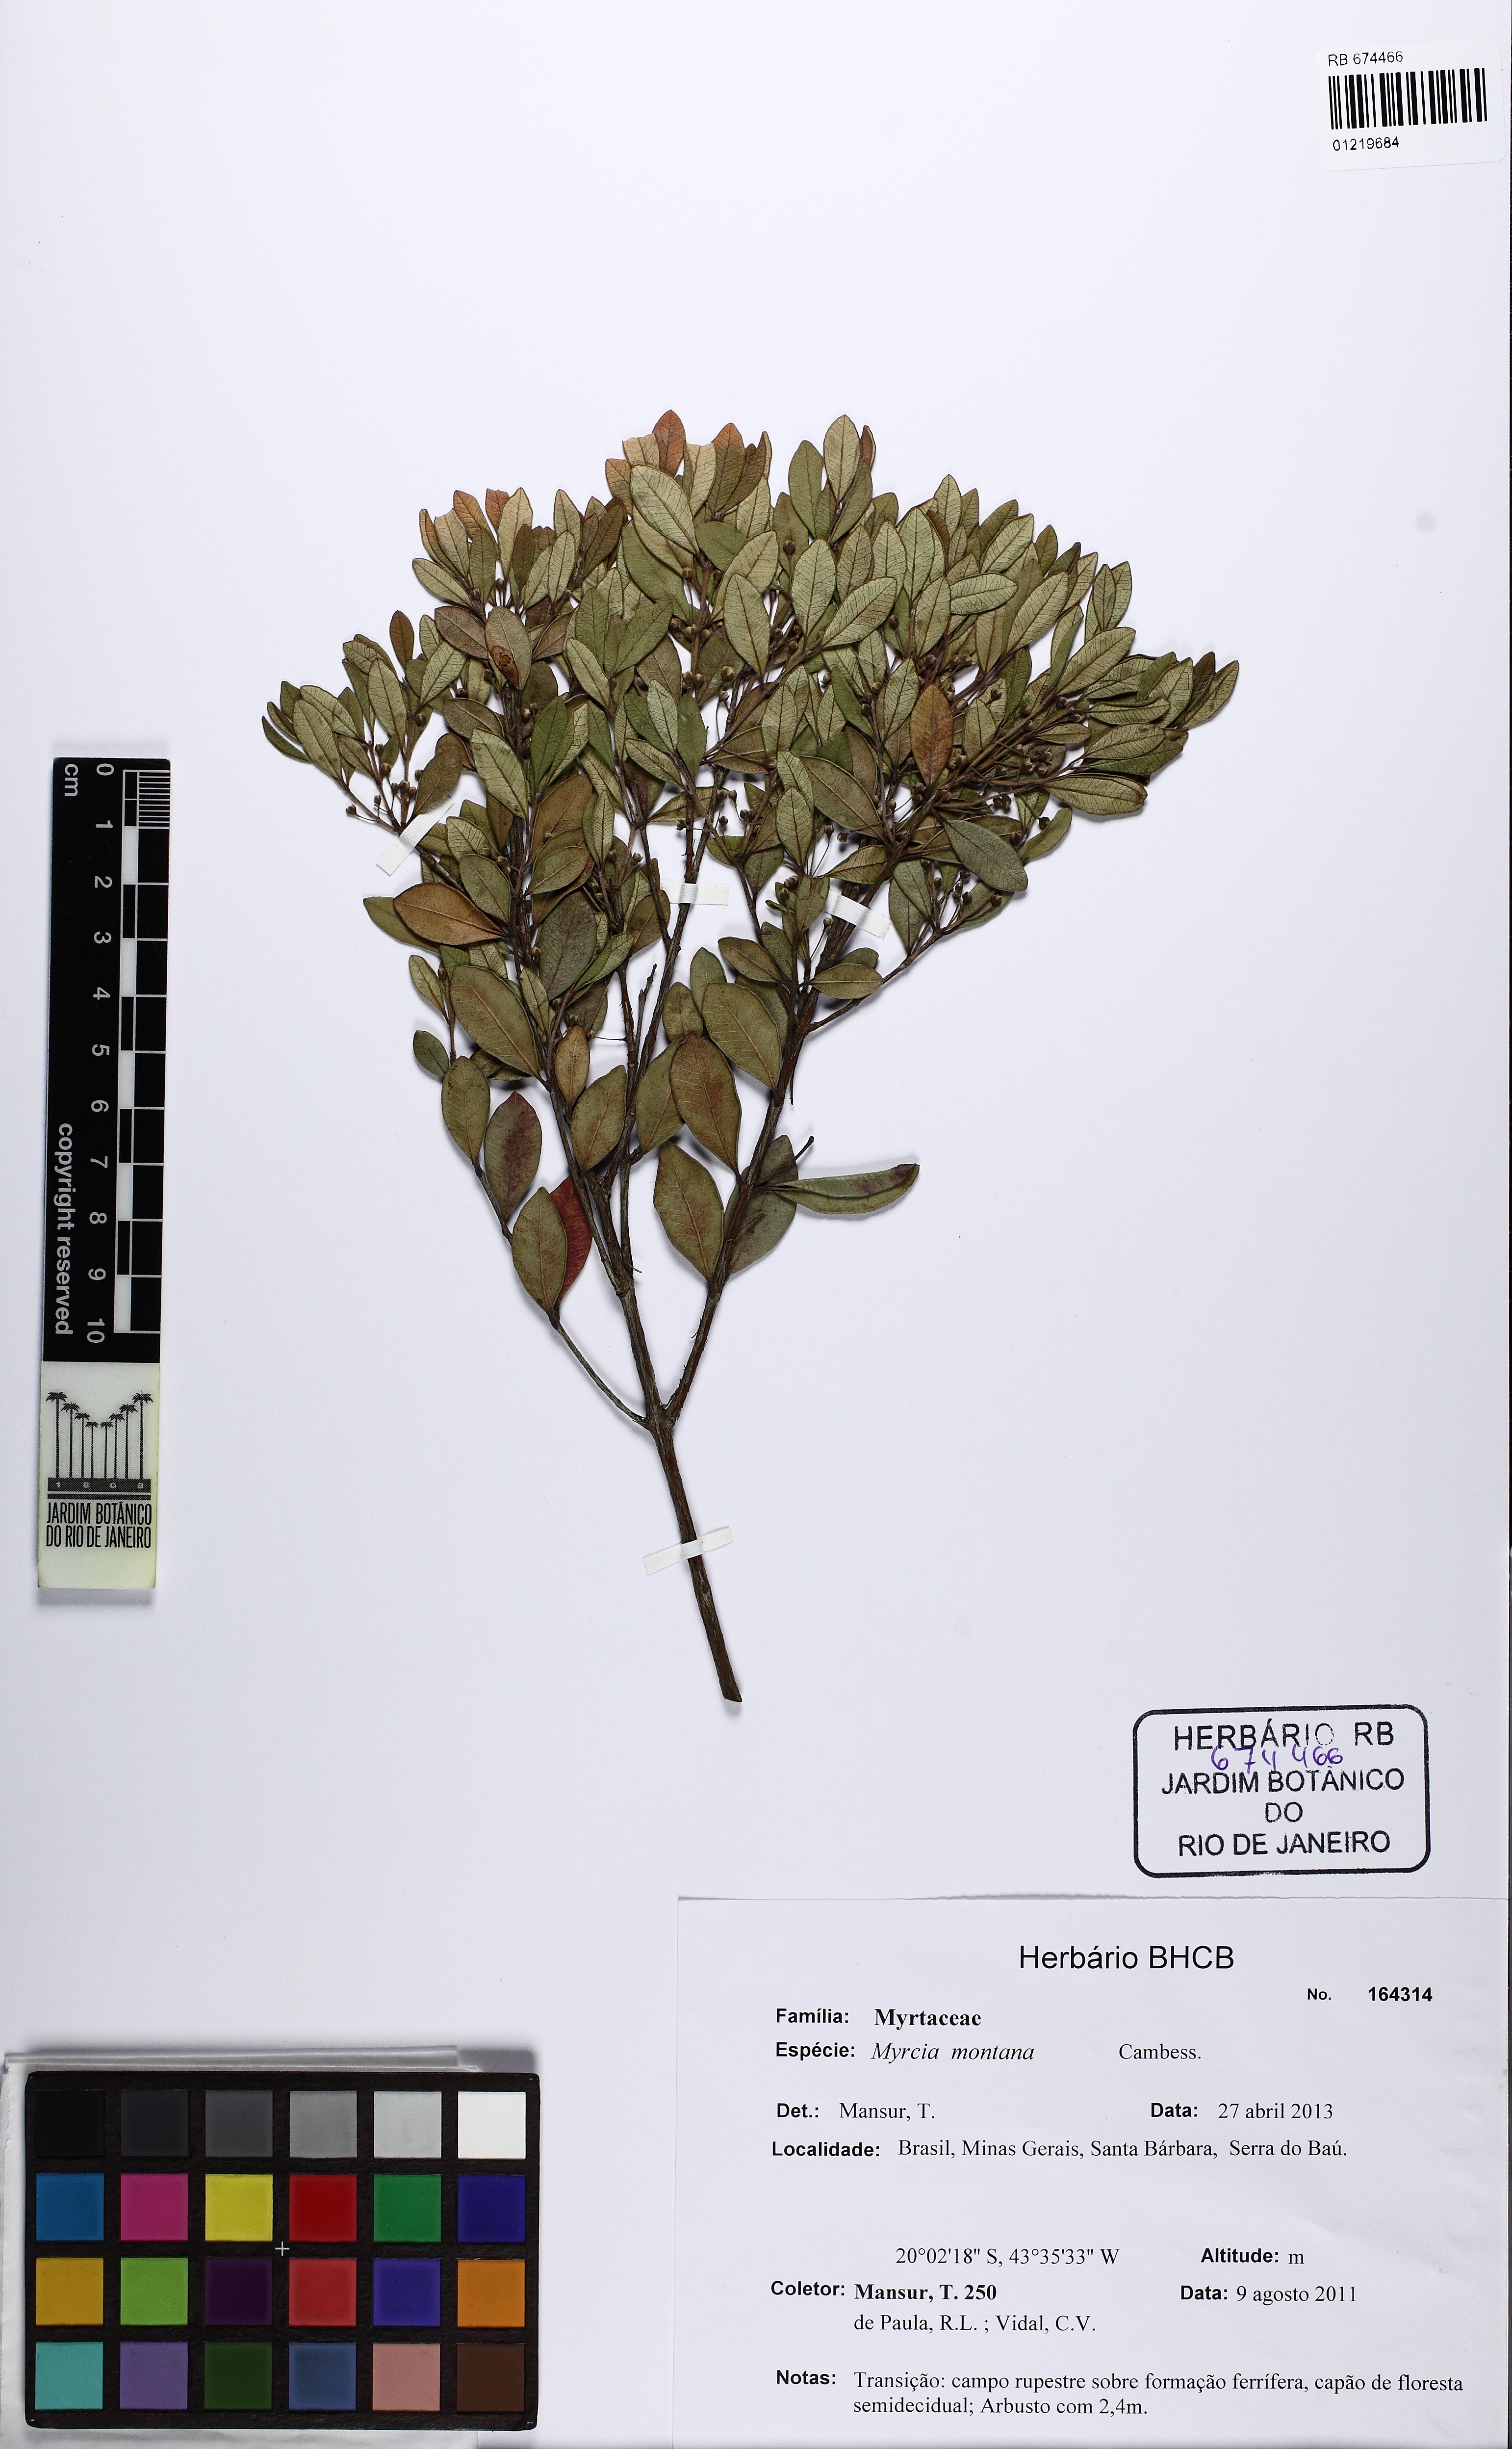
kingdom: Plantae
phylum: Tracheophyta
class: Magnoliopsida
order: Myrtales
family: Myrtaceae
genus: Blepharocalyx
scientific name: Blepharocalyx salicifolius
